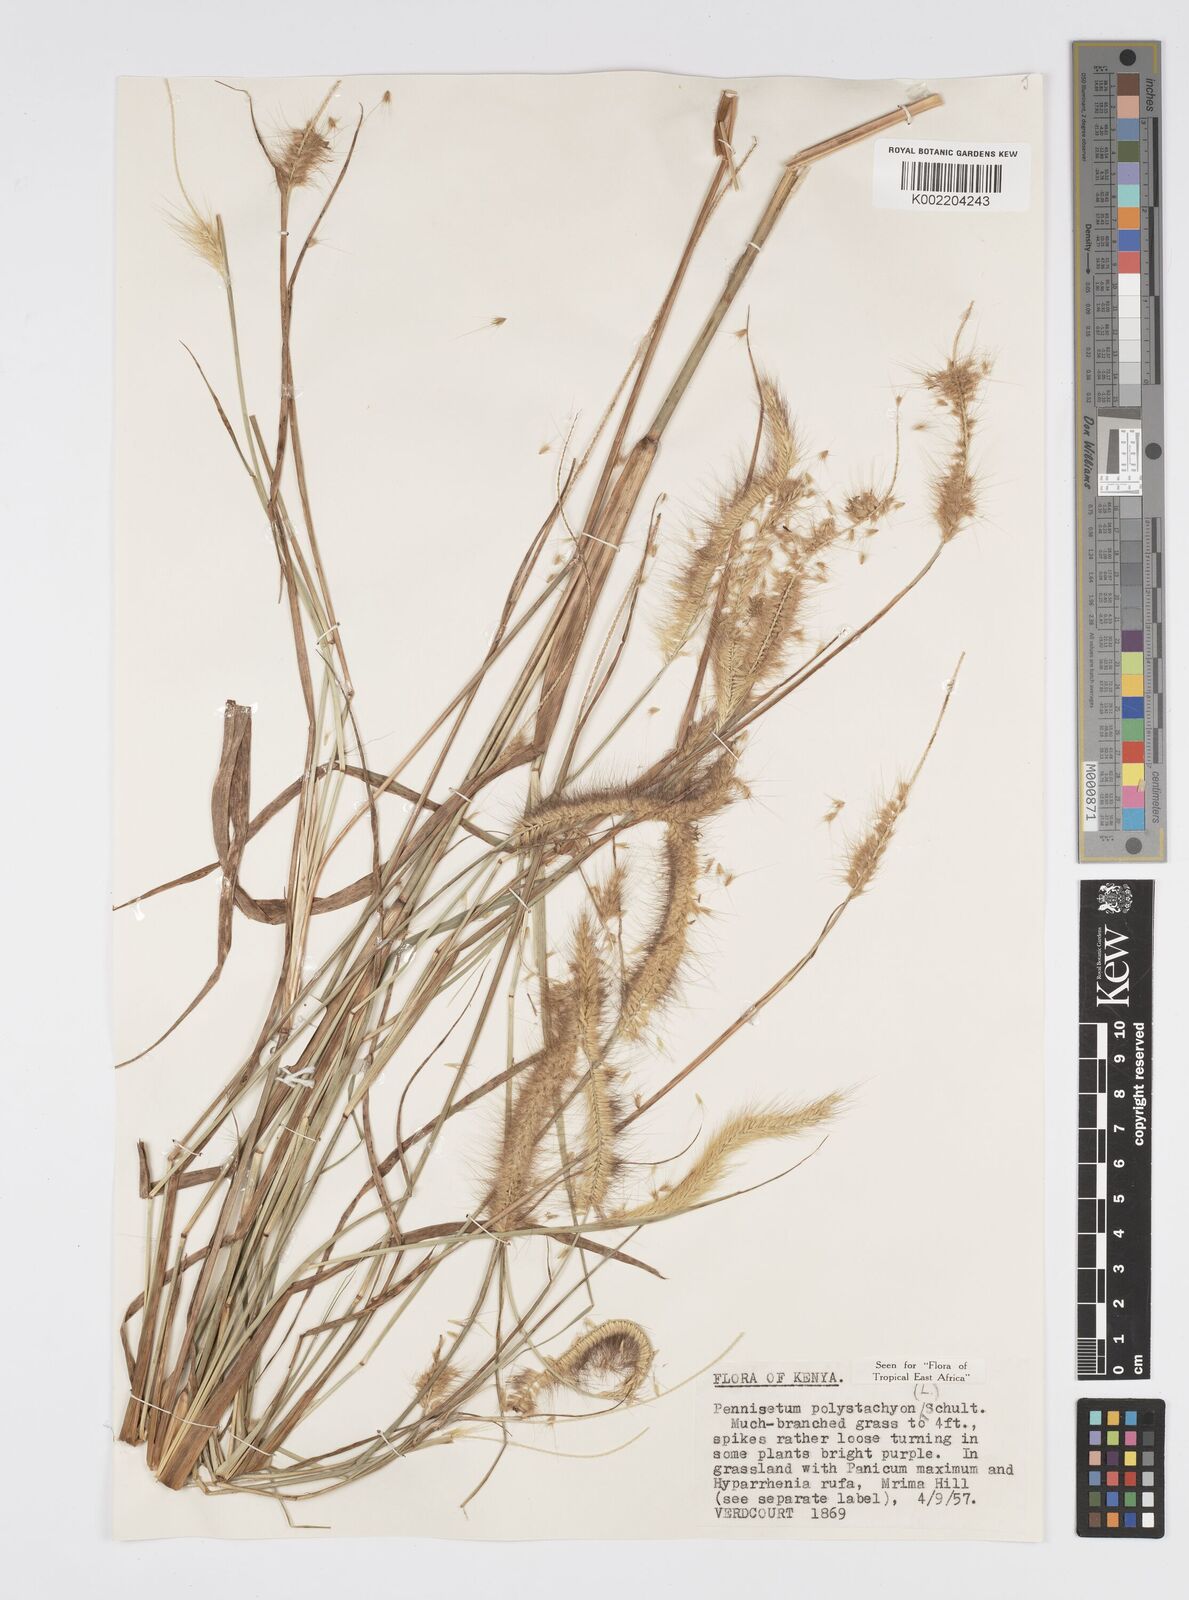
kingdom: Plantae
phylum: Tracheophyta
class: Liliopsida
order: Poales
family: Poaceae
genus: Setaria
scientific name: Setaria parviflora
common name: Knotroot bristle-grass
